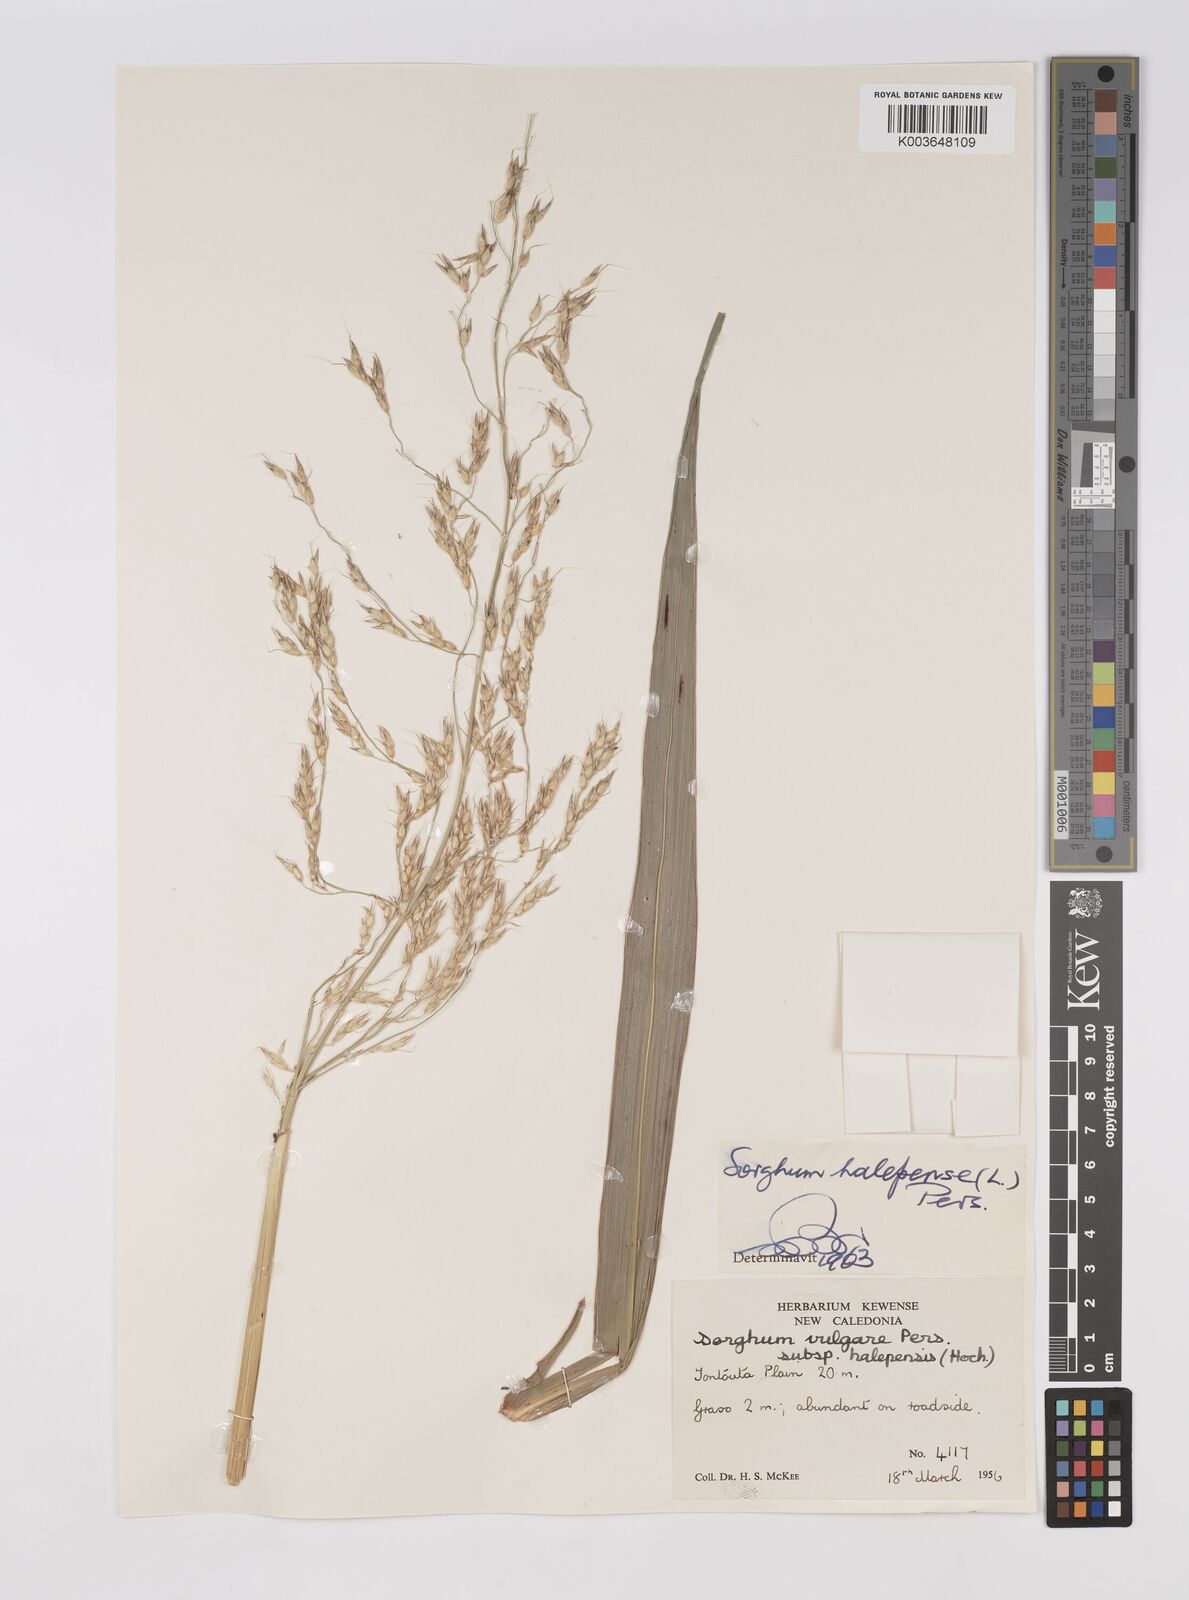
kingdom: Plantae
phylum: Tracheophyta
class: Liliopsida
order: Poales
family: Poaceae
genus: Sorghum
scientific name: Sorghum arundinaceum
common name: Sorghum
